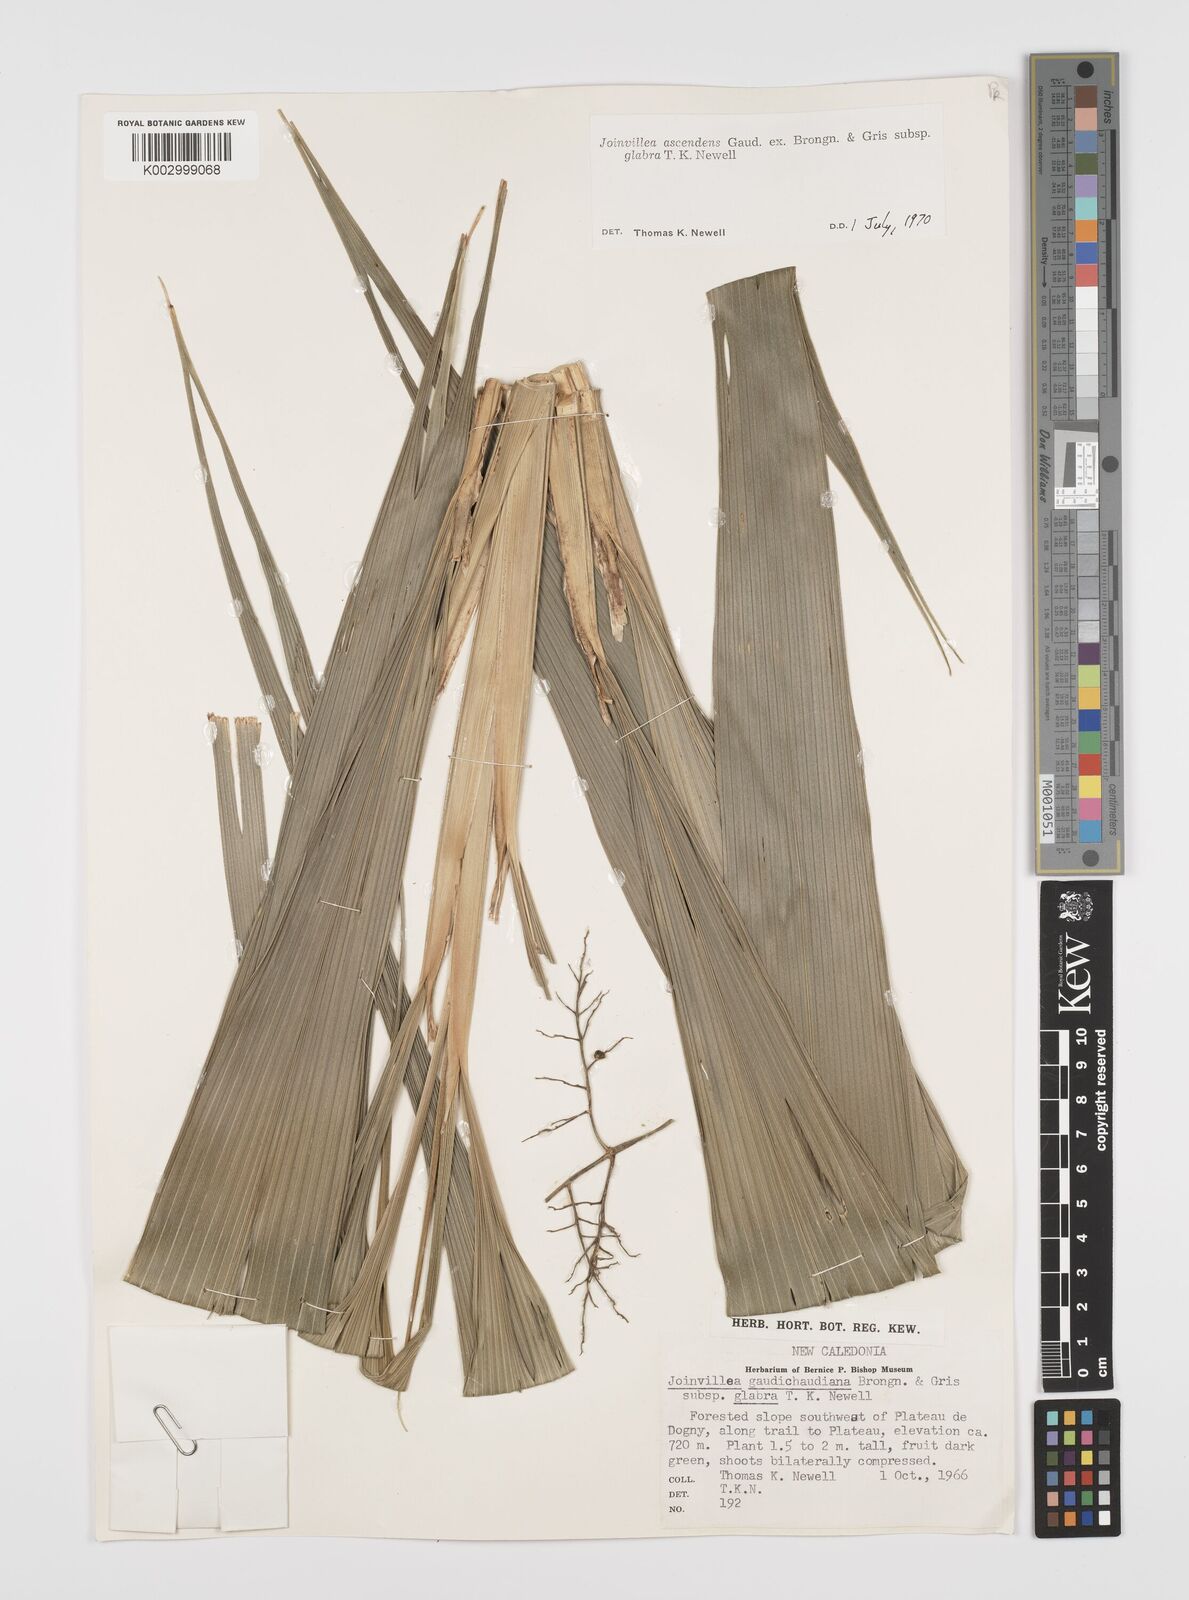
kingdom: Plantae
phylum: Tracheophyta
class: Liliopsida
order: Poales
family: Joinvilleaceae
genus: Joinvillea
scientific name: Joinvillea ascendens
